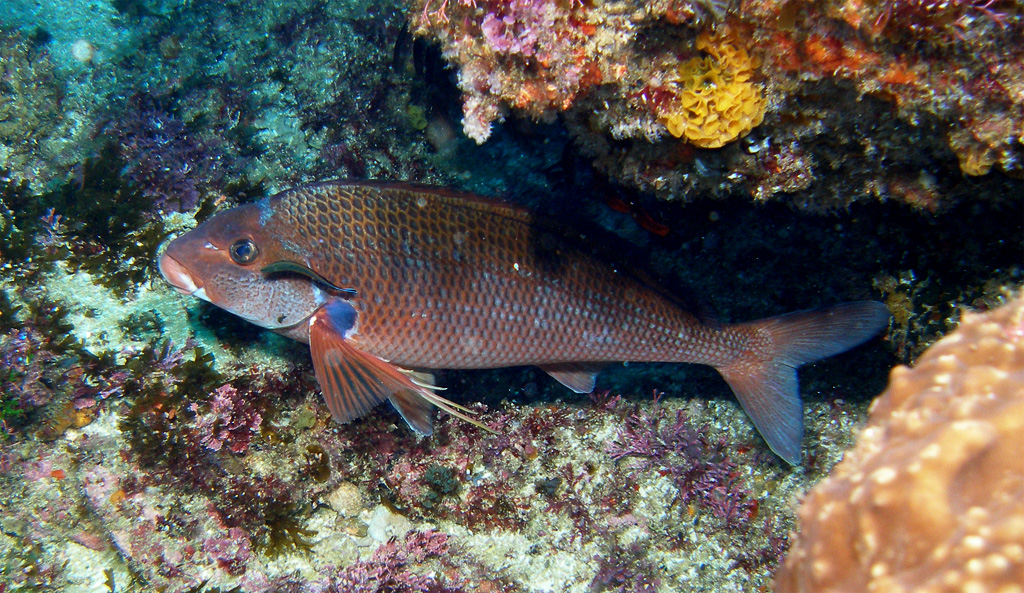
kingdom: Animalia
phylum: Chordata
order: Perciformes
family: Cheilodactylidae
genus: Chirodactylus
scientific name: Chirodactylus jessicalenorum
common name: Natal fingerfin
